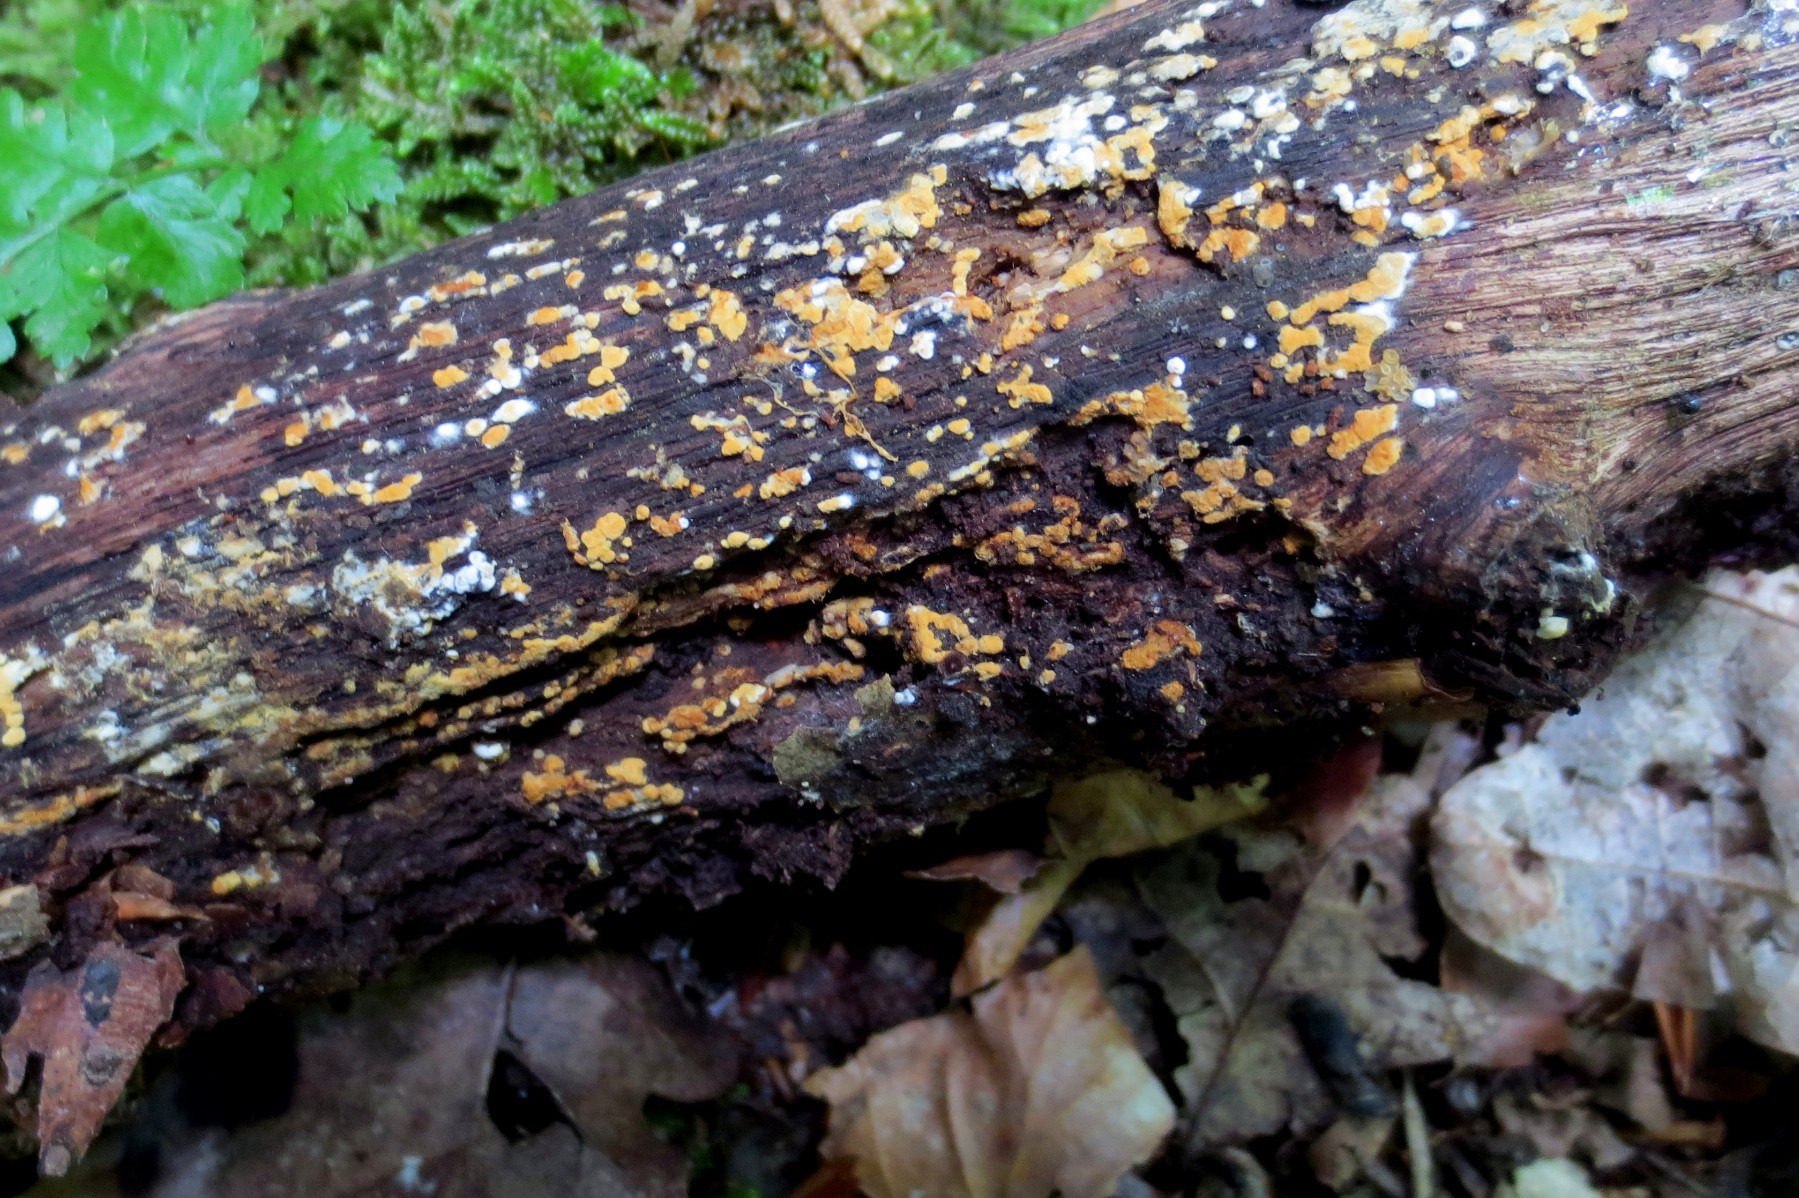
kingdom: Fungi
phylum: Basidiomycota
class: Agaricomycetes
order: Cantharellales
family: Botryobasidiaceae
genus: Botryobasidium
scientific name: Botryobasidium aureum
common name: gylden spindhinde
